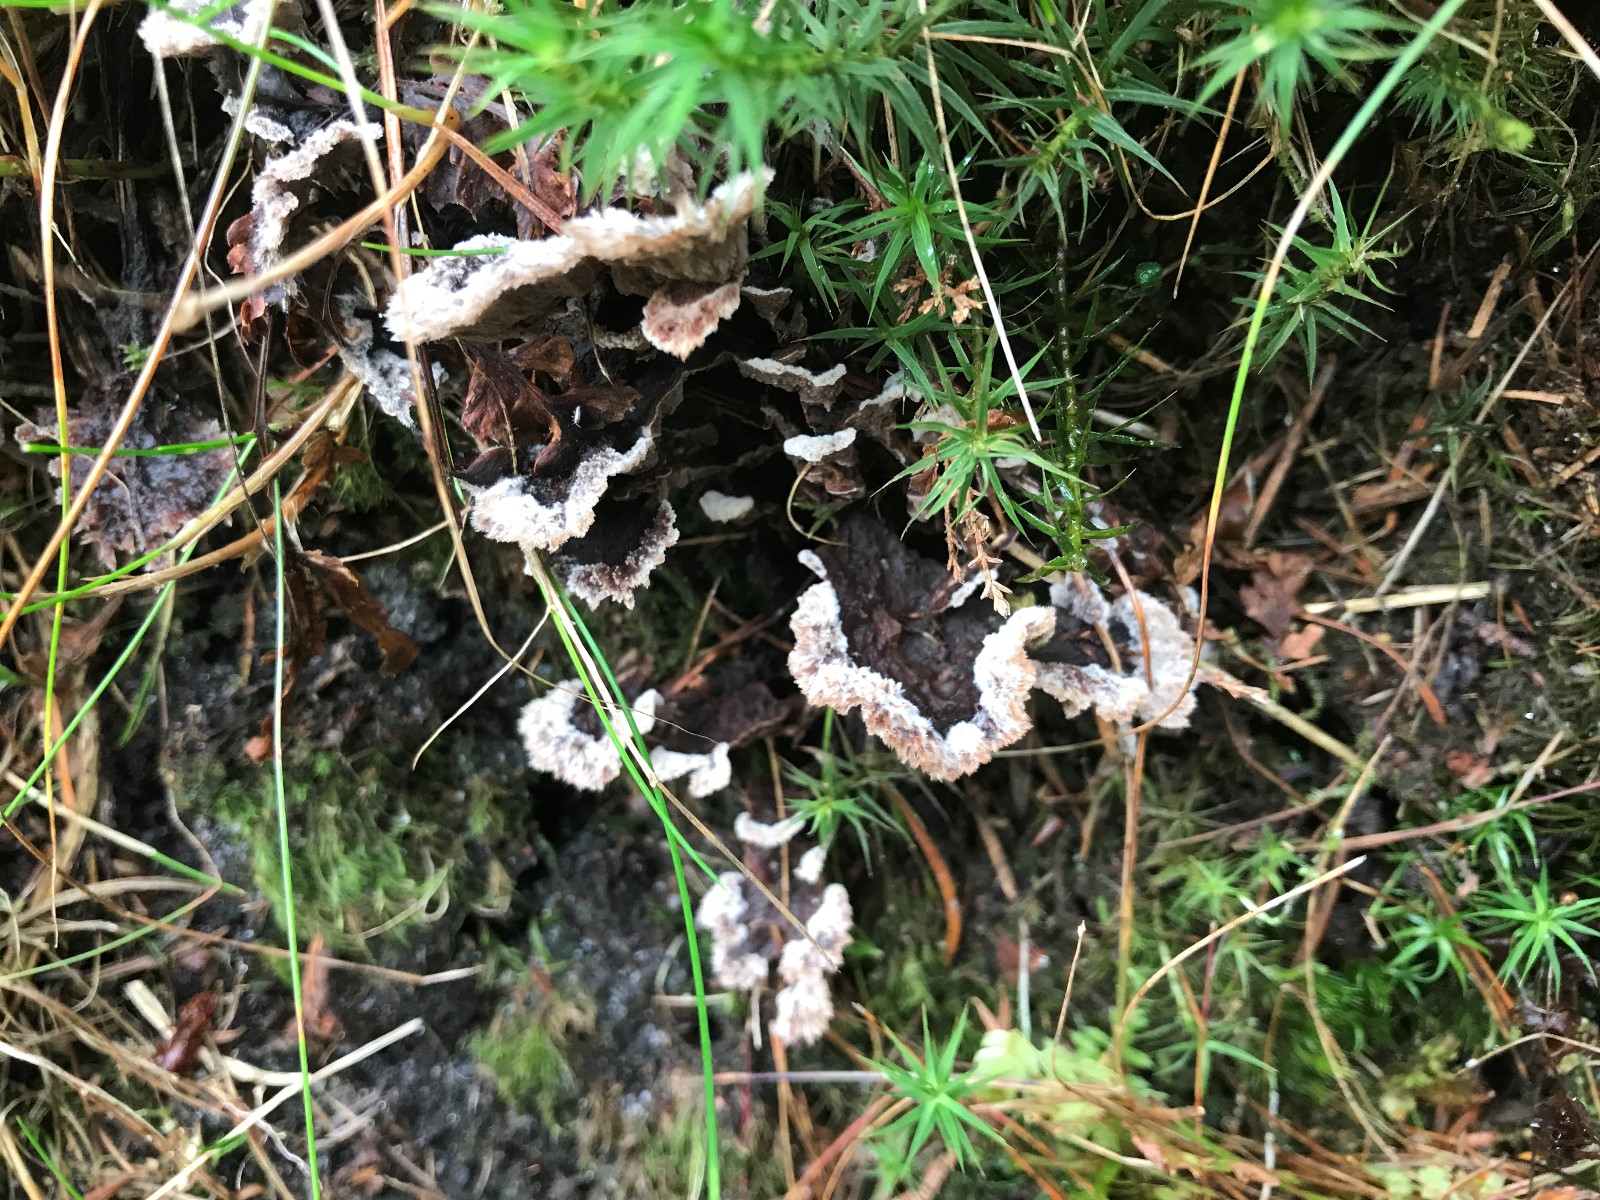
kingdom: Fungi
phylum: Basidiomycota
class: Agaricomycetes
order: Thelephorales
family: Thelephoraceae
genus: Thelephora
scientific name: Thelephora terrestris
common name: fliget frynsesvamp
